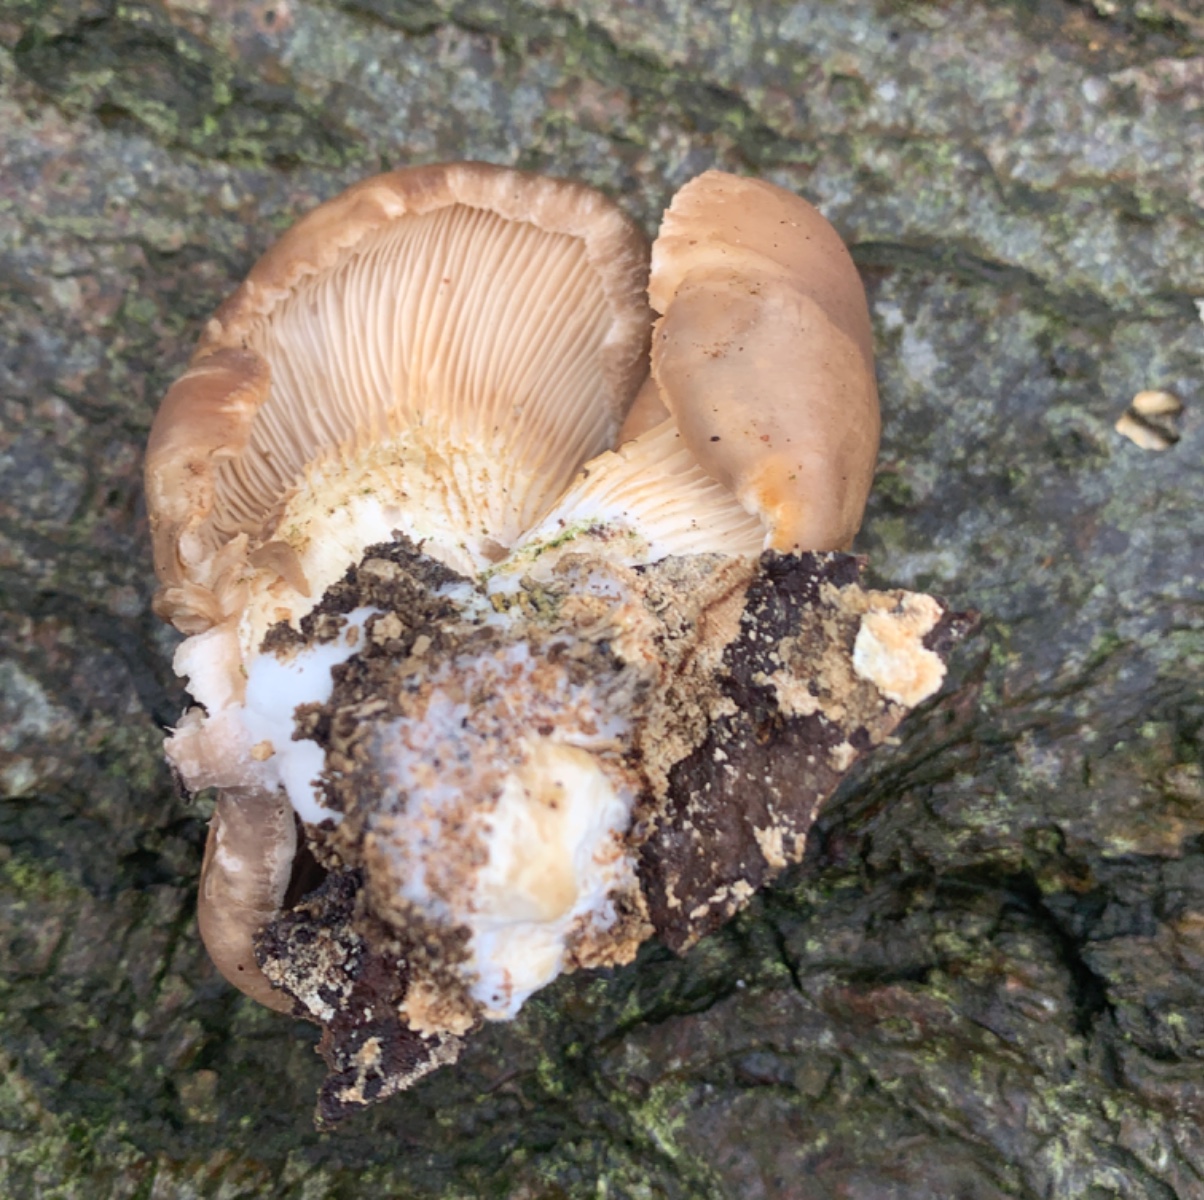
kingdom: Fungi
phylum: Basidiomycota
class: Agaricomycetes
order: Agaricales
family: Pleurotaceae
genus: Pleurotus
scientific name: Pleurotus ostreatus
